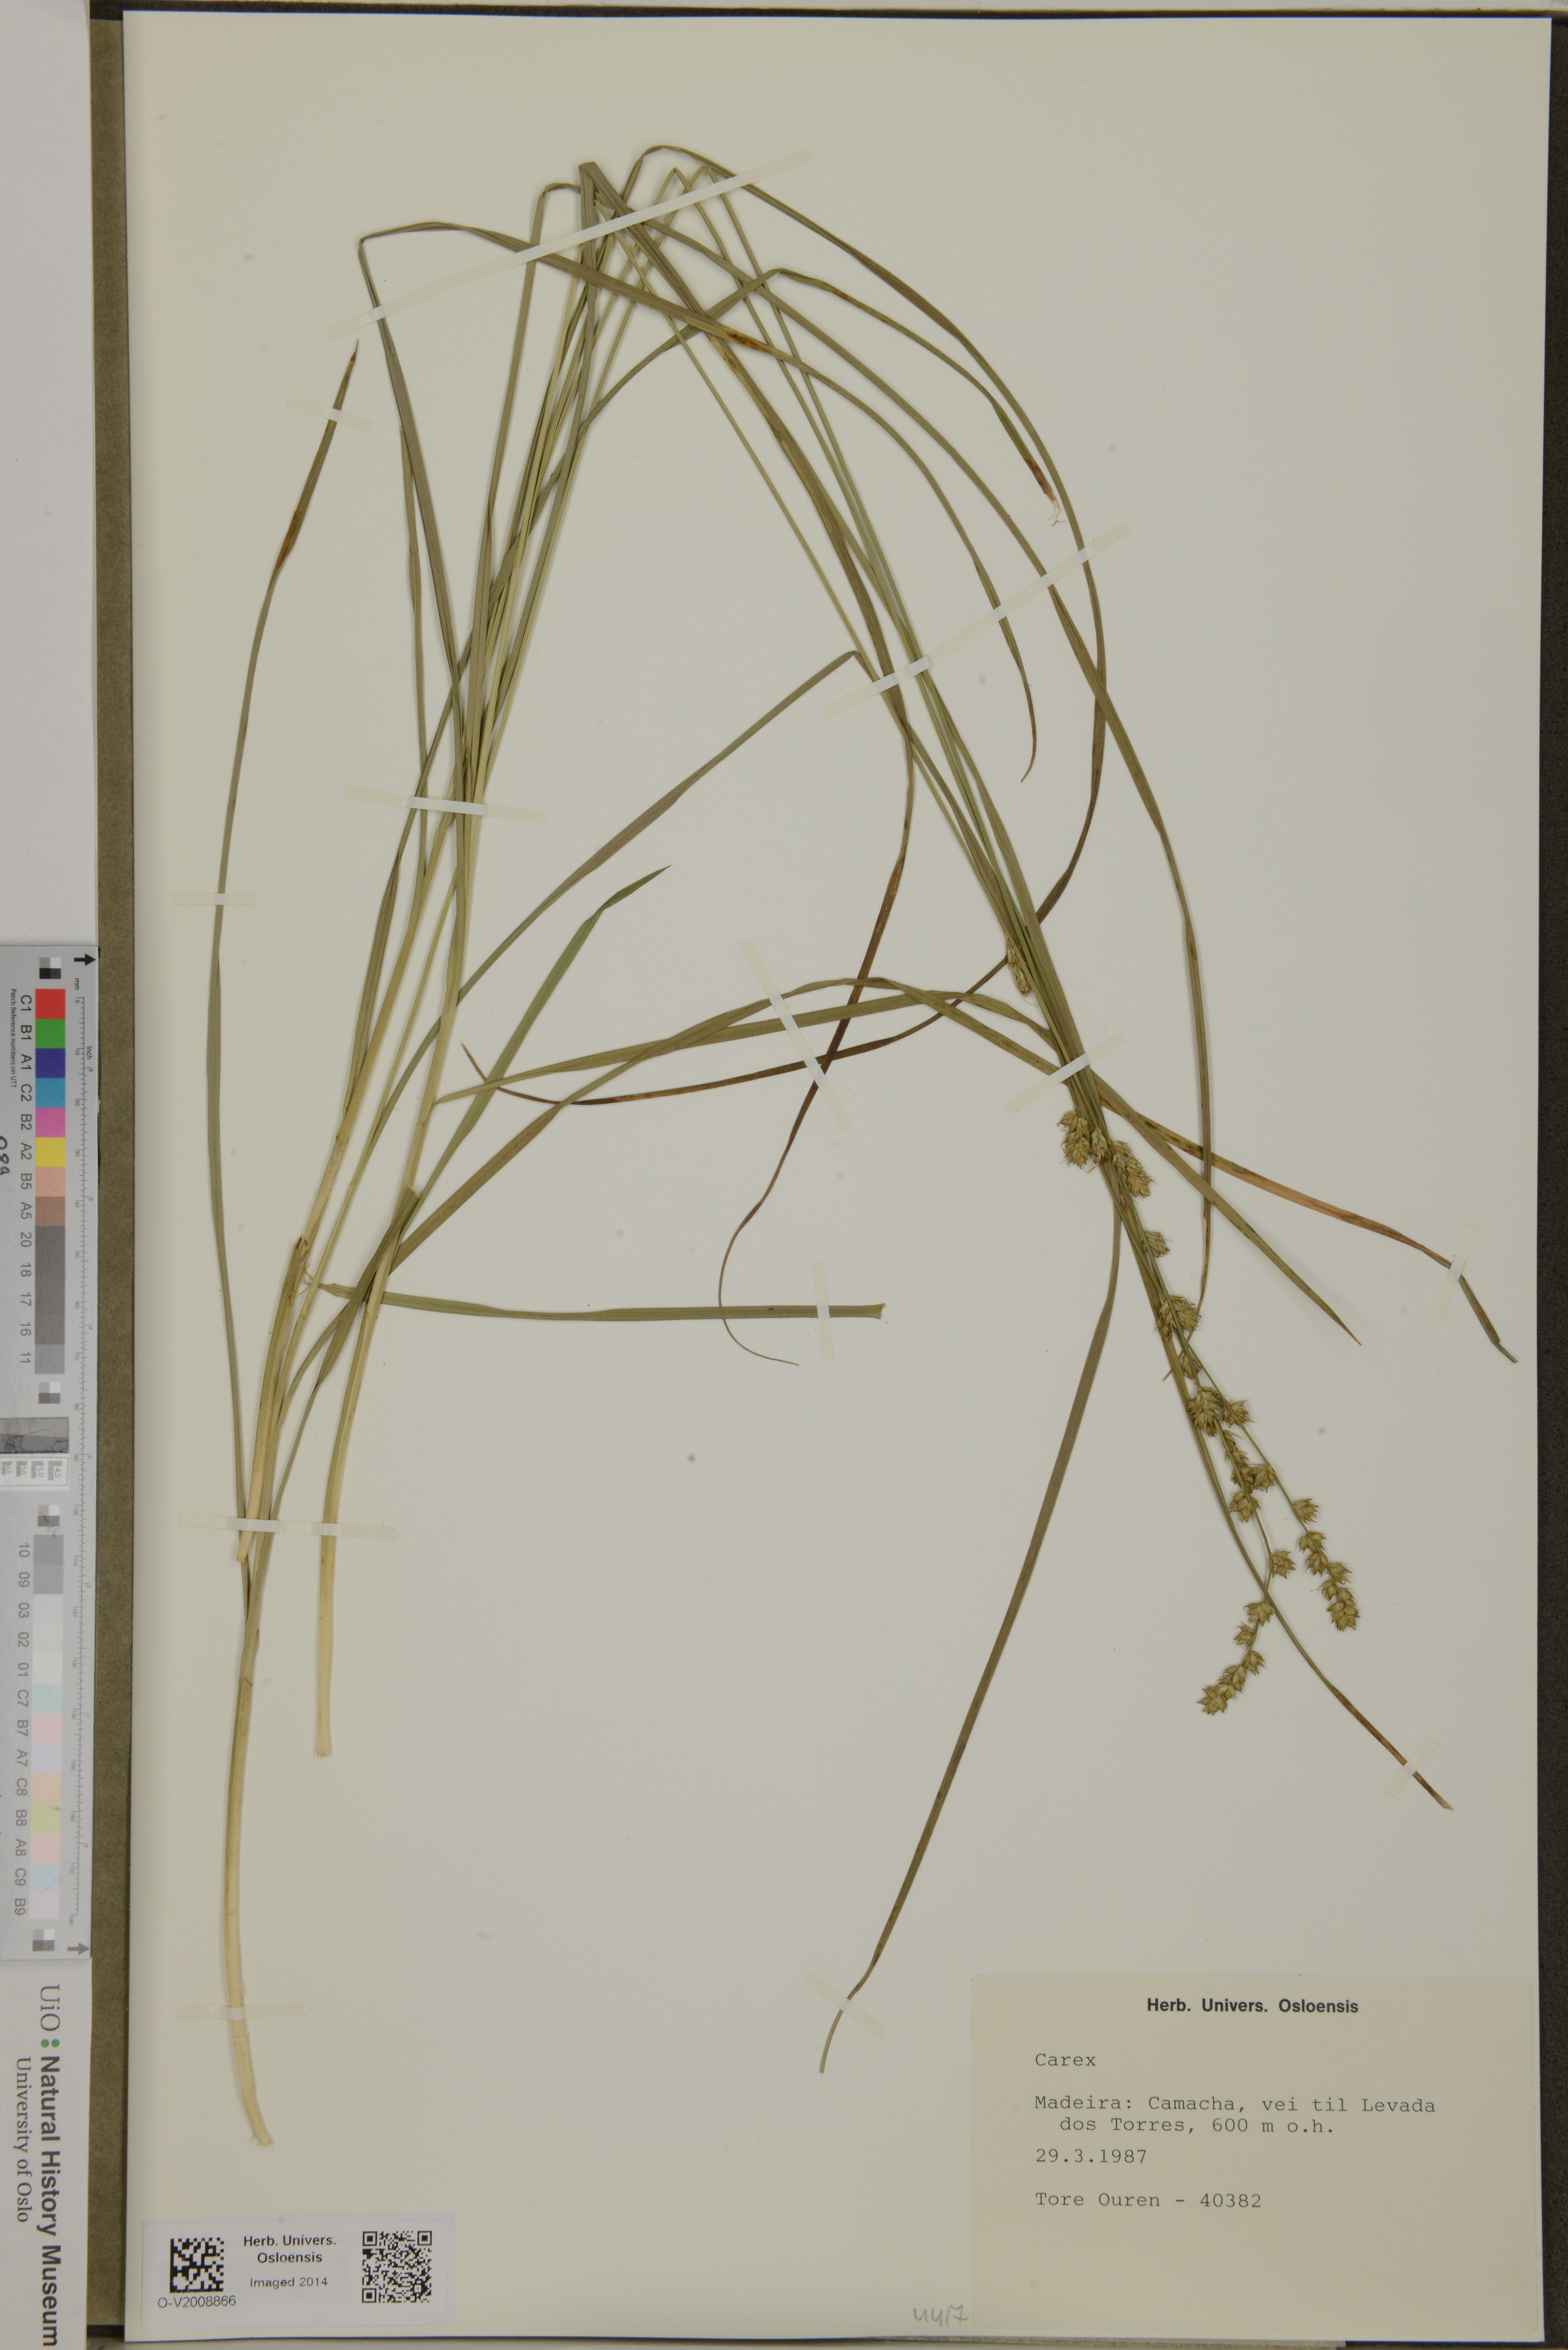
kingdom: Plantae
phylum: Tracheophyta
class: Liliopsida
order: Poales
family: Cyperaceae
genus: Carex
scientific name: Carex
